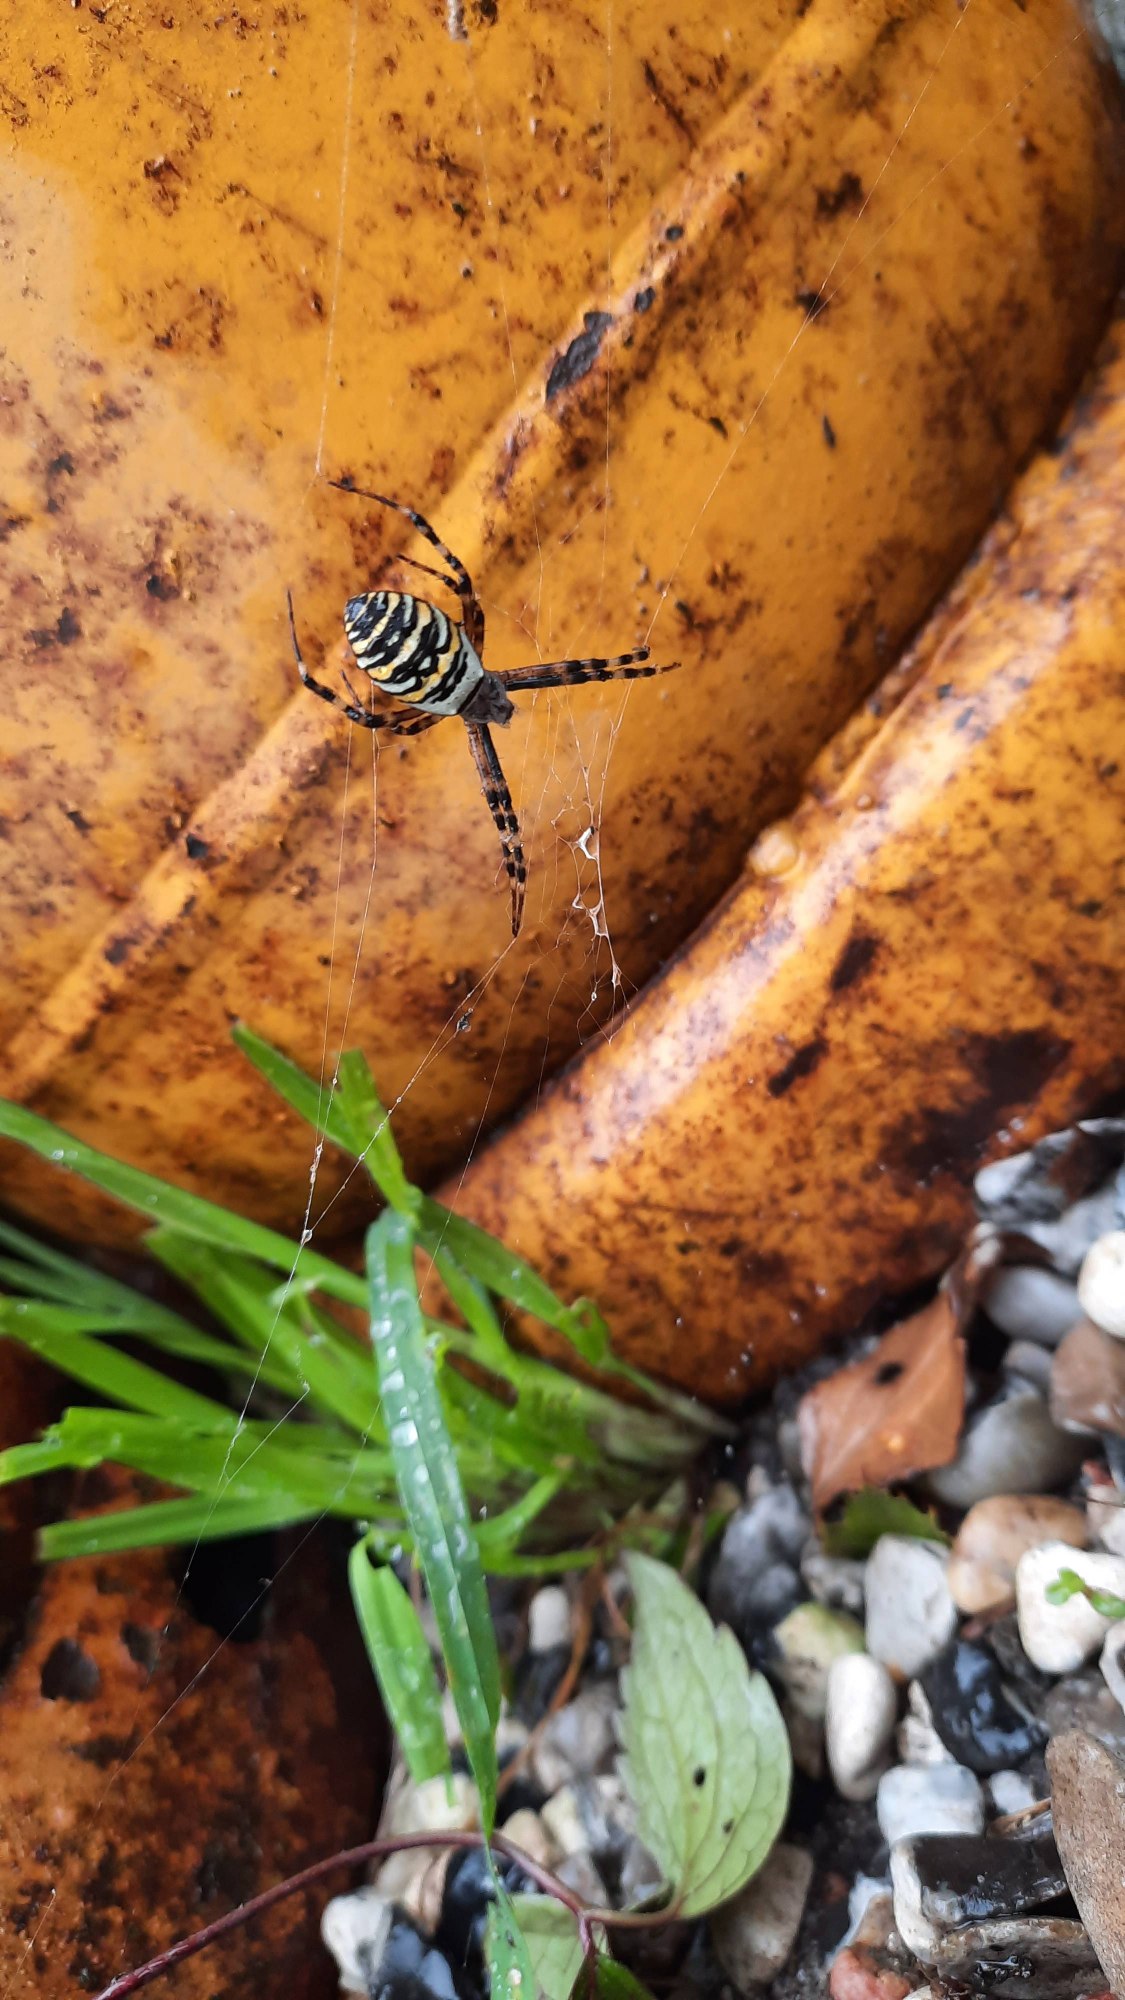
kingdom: Animalia
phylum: Arthropoda
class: Arachnida
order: Araneae
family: Araneidae
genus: Argiope
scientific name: Argiope bruennichi
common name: Hvepseedderkop
